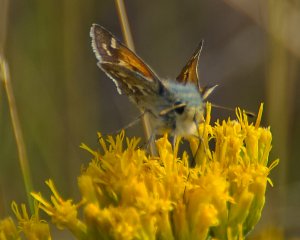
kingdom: Animalia
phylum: Arthropoda
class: Insecta
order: Lepidoptera
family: Hesperiidae
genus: Hesperia
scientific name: Hesperia comma
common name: Western Branded Skipper
